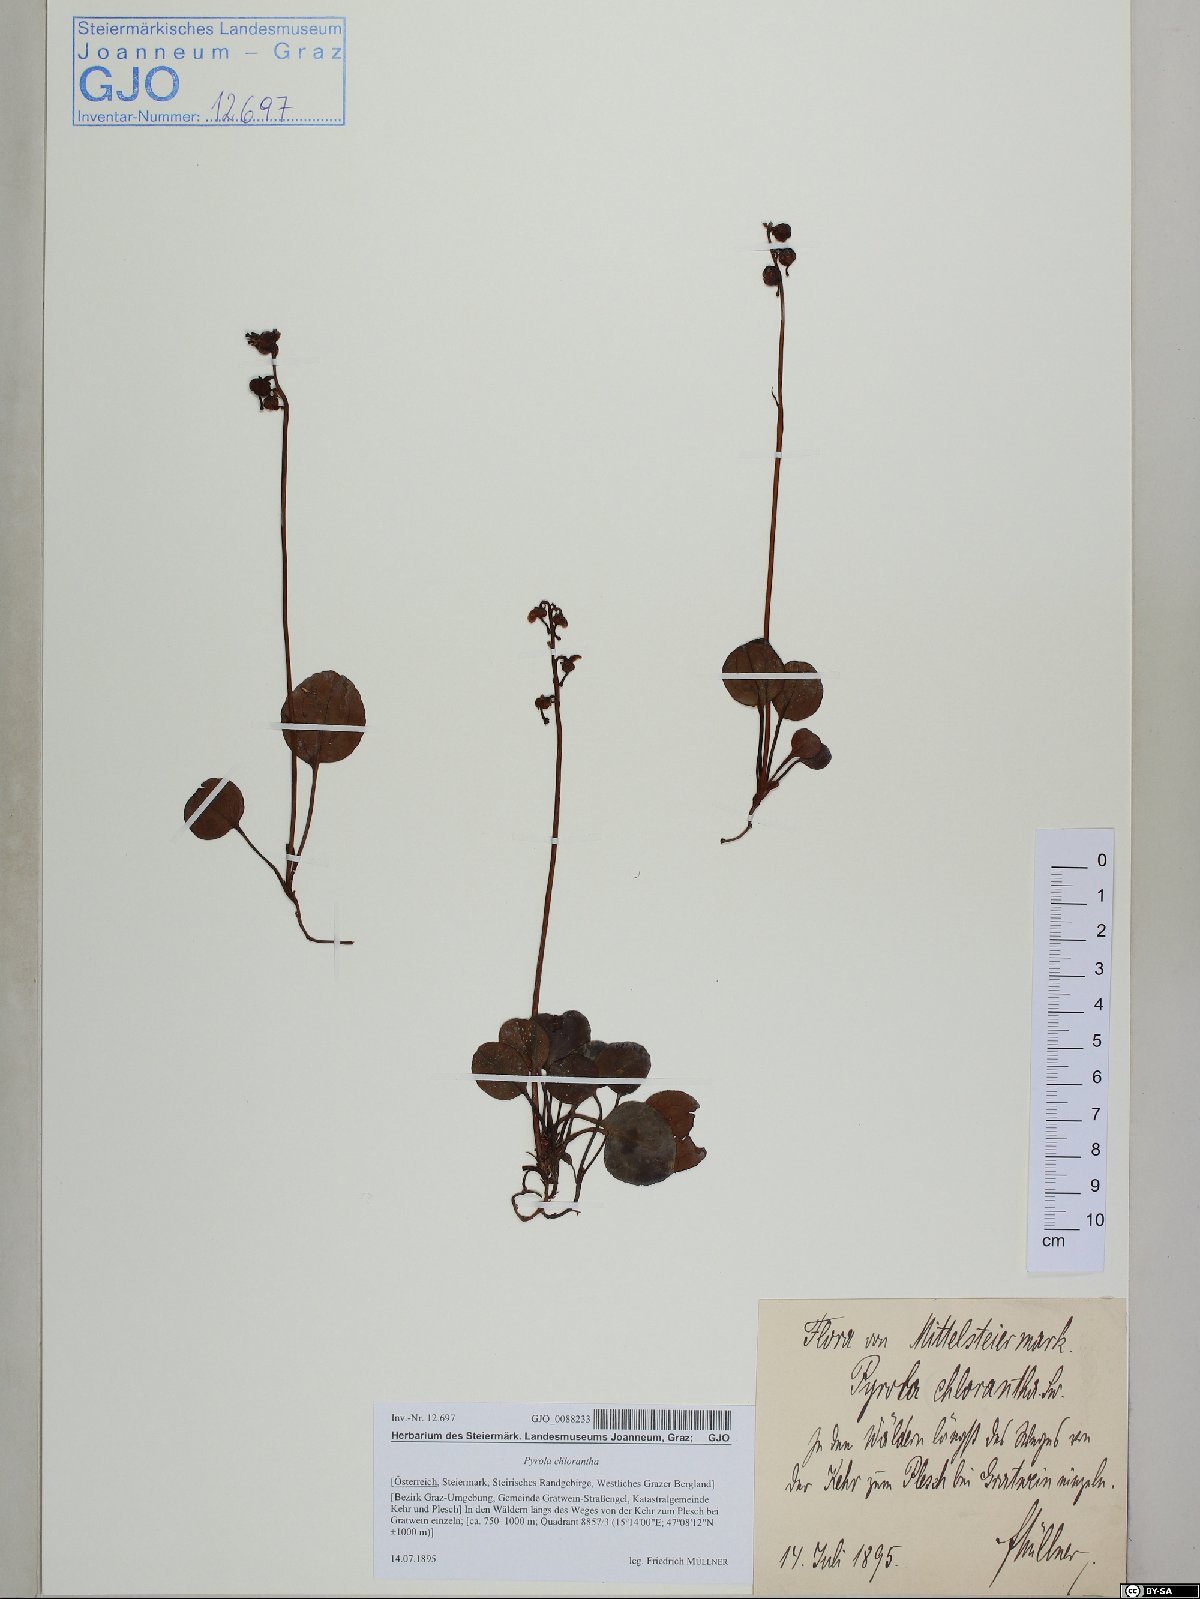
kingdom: Plantae
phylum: Tracheophyta
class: Magnoliopsida
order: Ericales
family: Ericaceae
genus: Pyrola
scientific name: Pyrola chlorantha
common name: Green wintergreen
